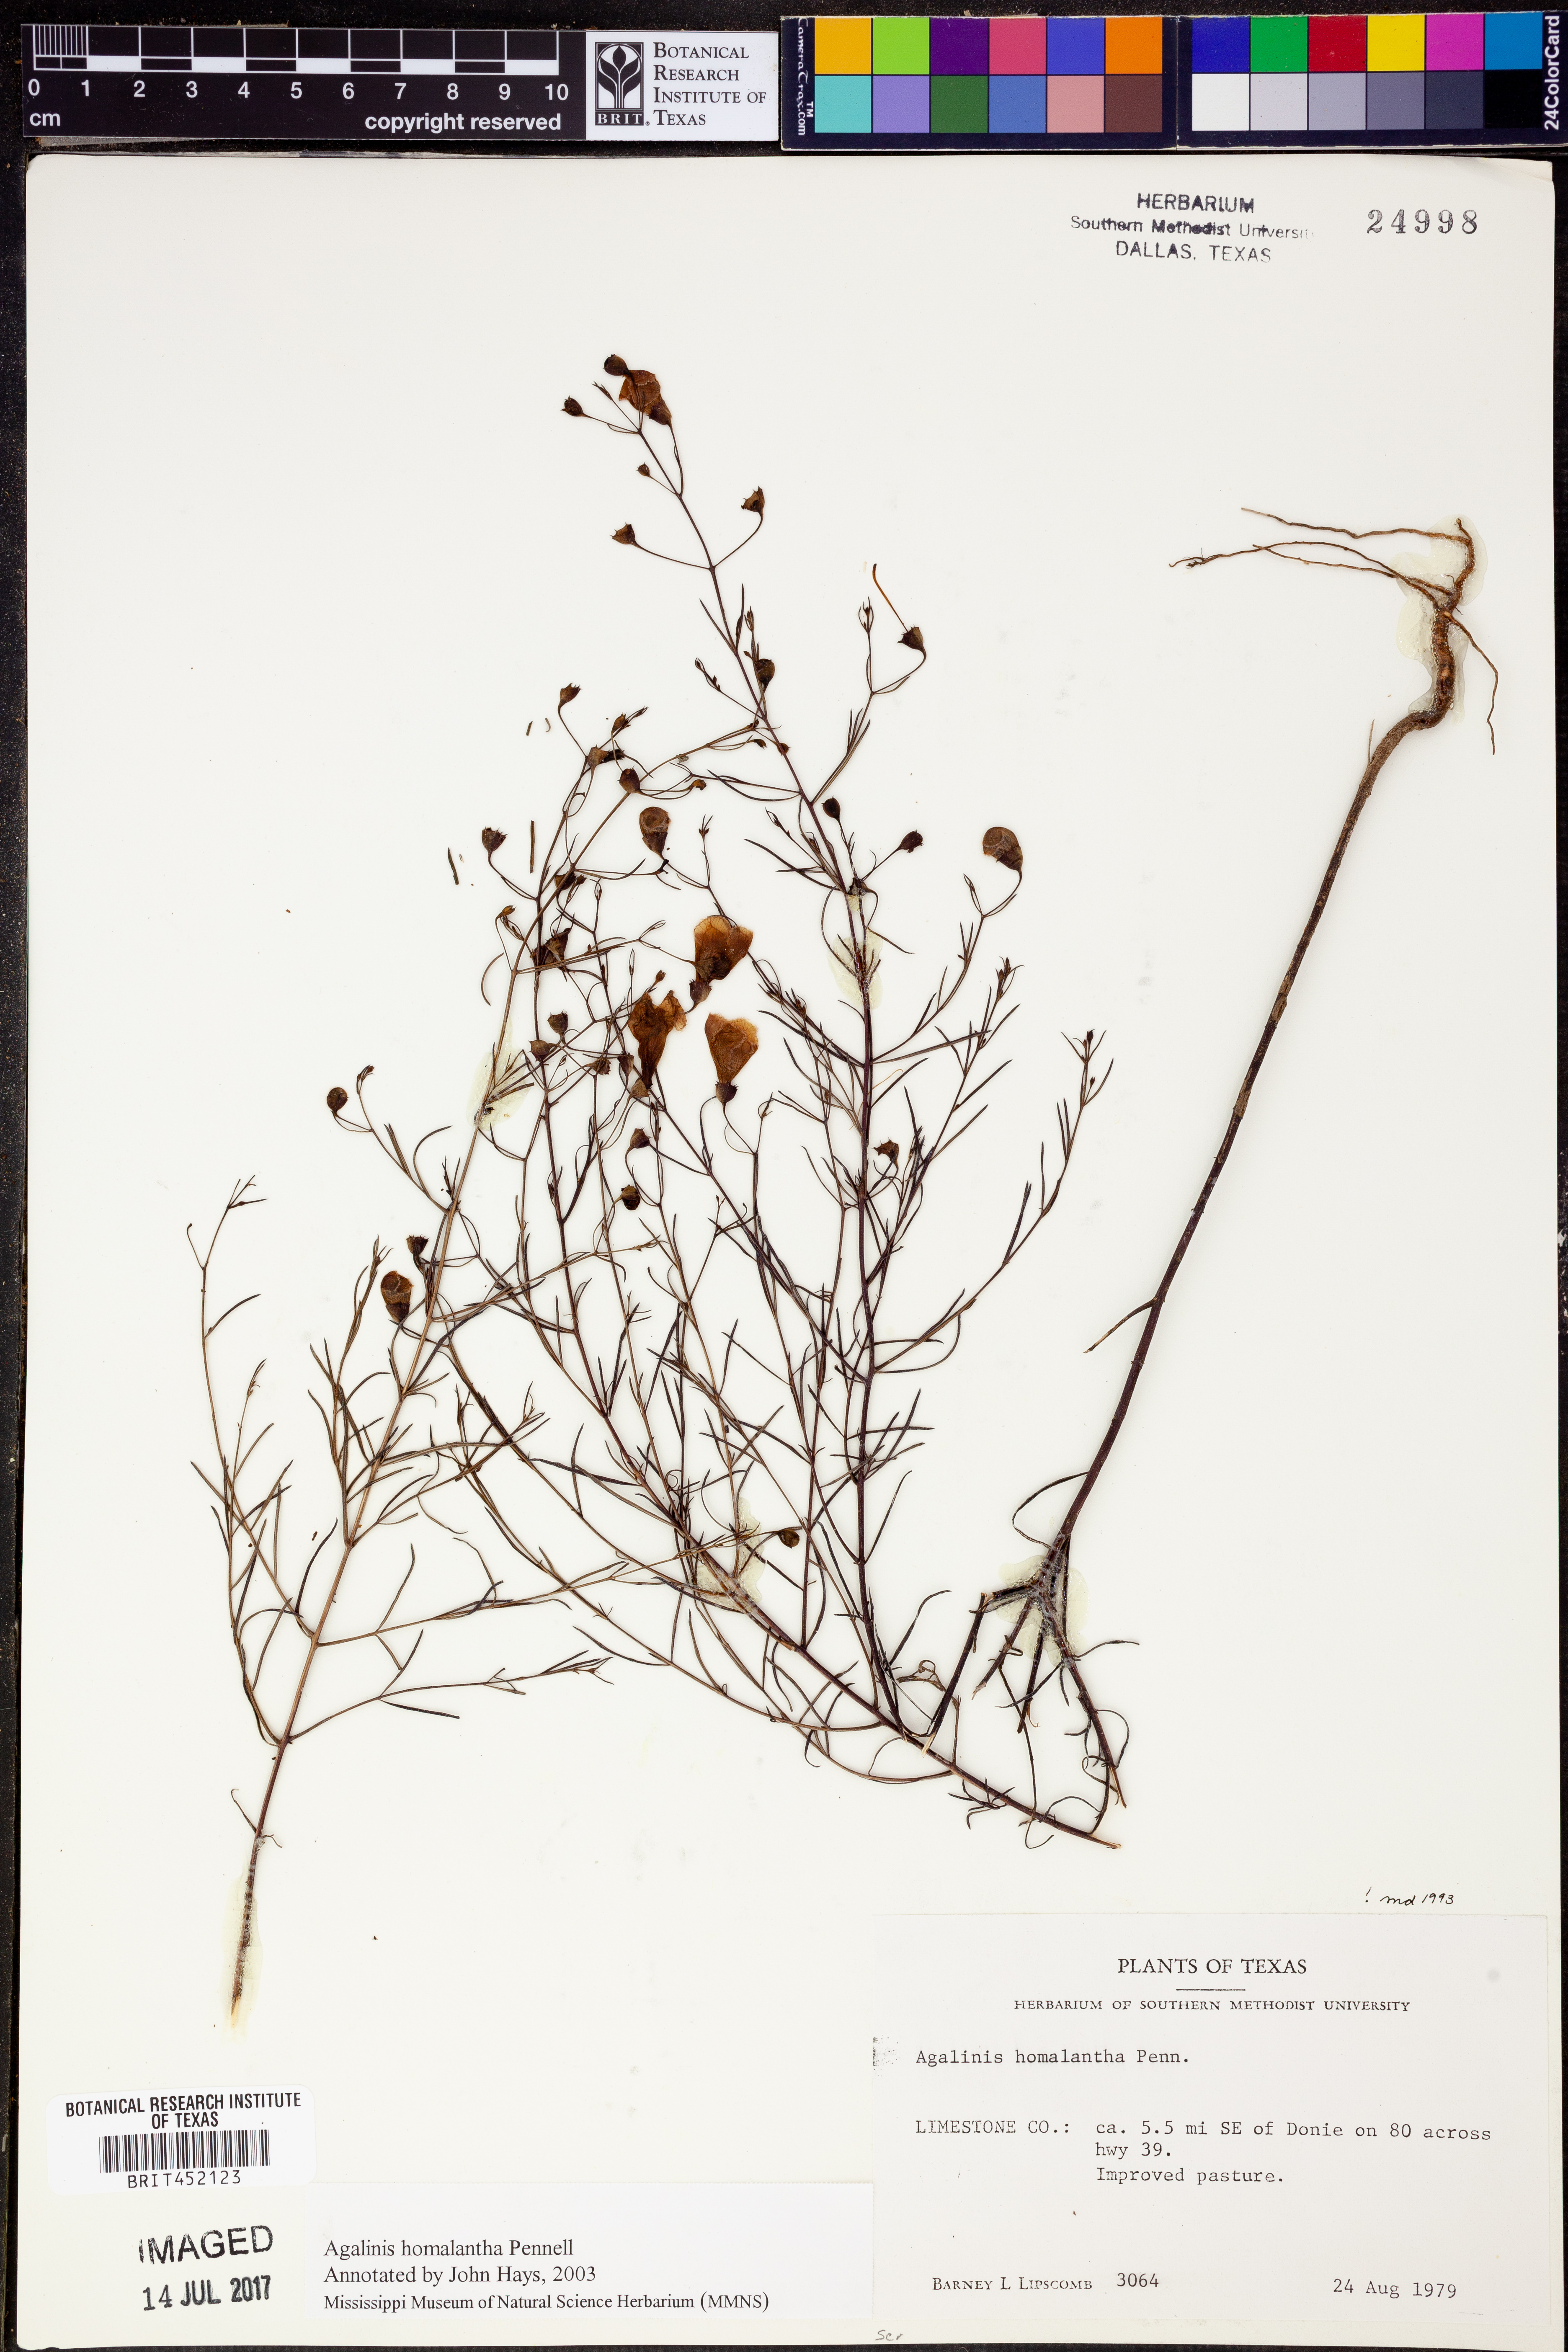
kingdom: Plantae
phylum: Tracheophyta
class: Magnoliopsida
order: Lamiales
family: Orobanchaceae
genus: Agalinis
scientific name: Agalinis homalantha
